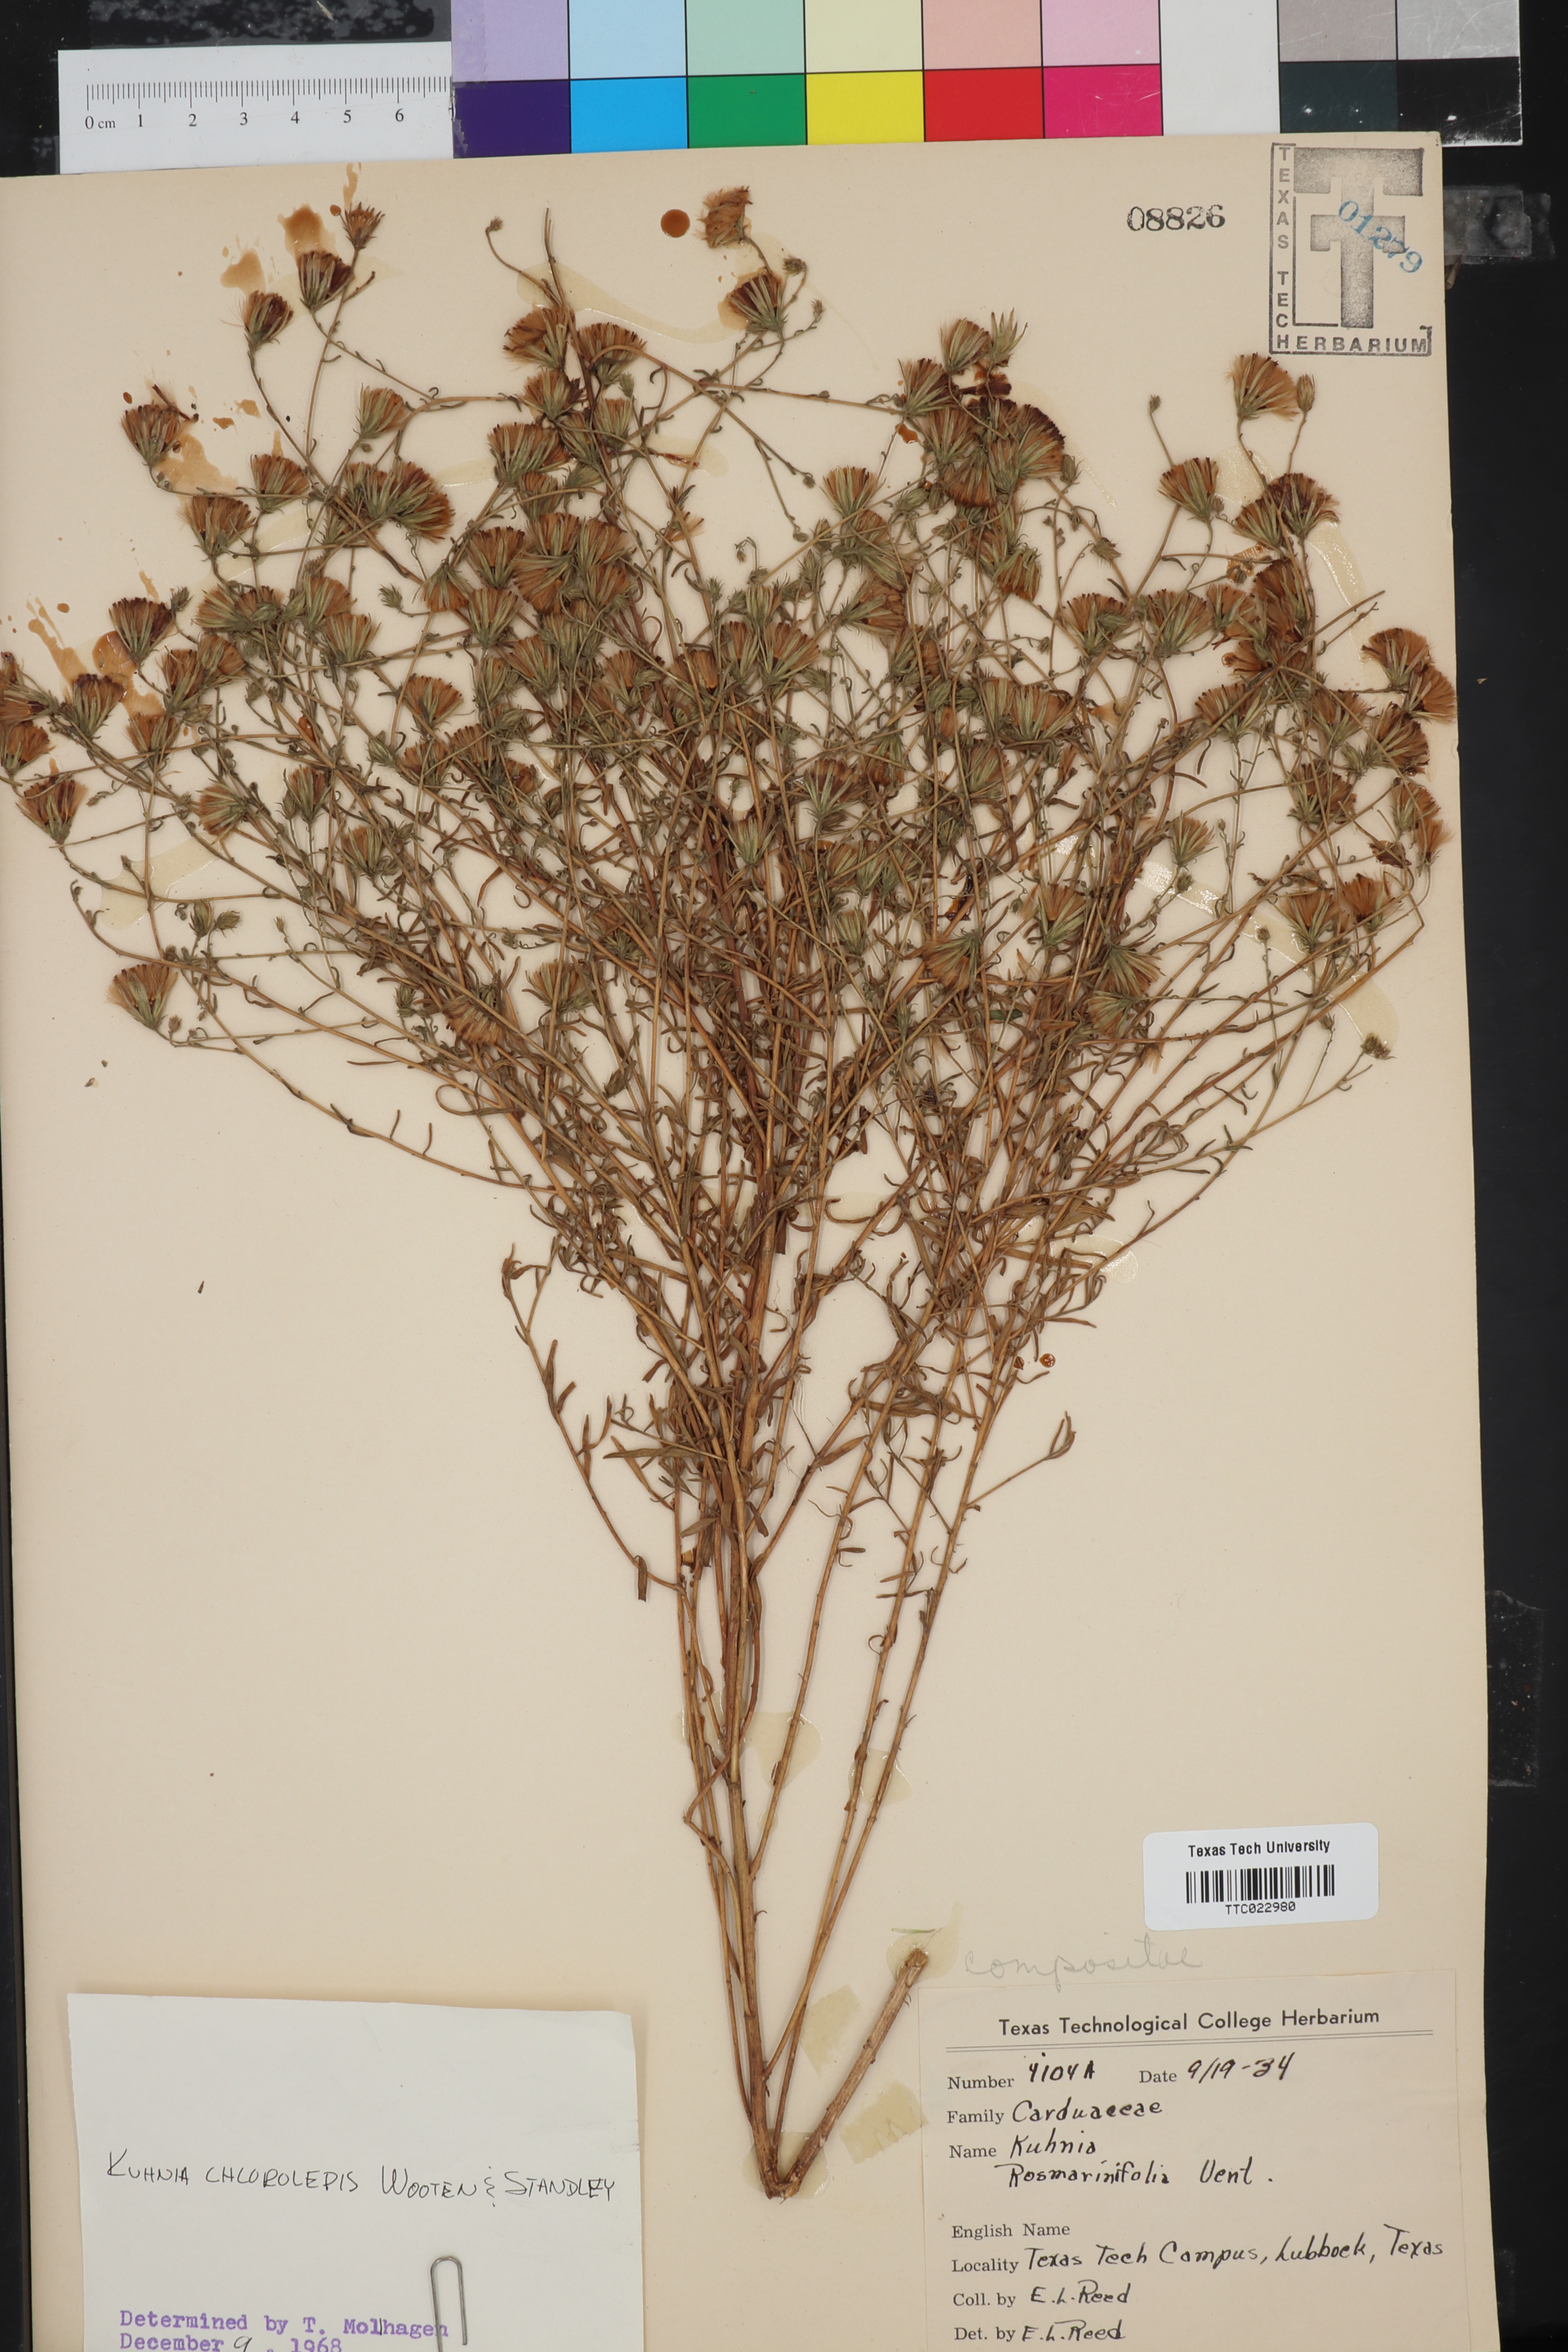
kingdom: Plantae
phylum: Tracheophyta
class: Magnoliopsida
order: Asterales
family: Asteraceae
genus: Brickellia
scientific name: Brickellia leptophylla
